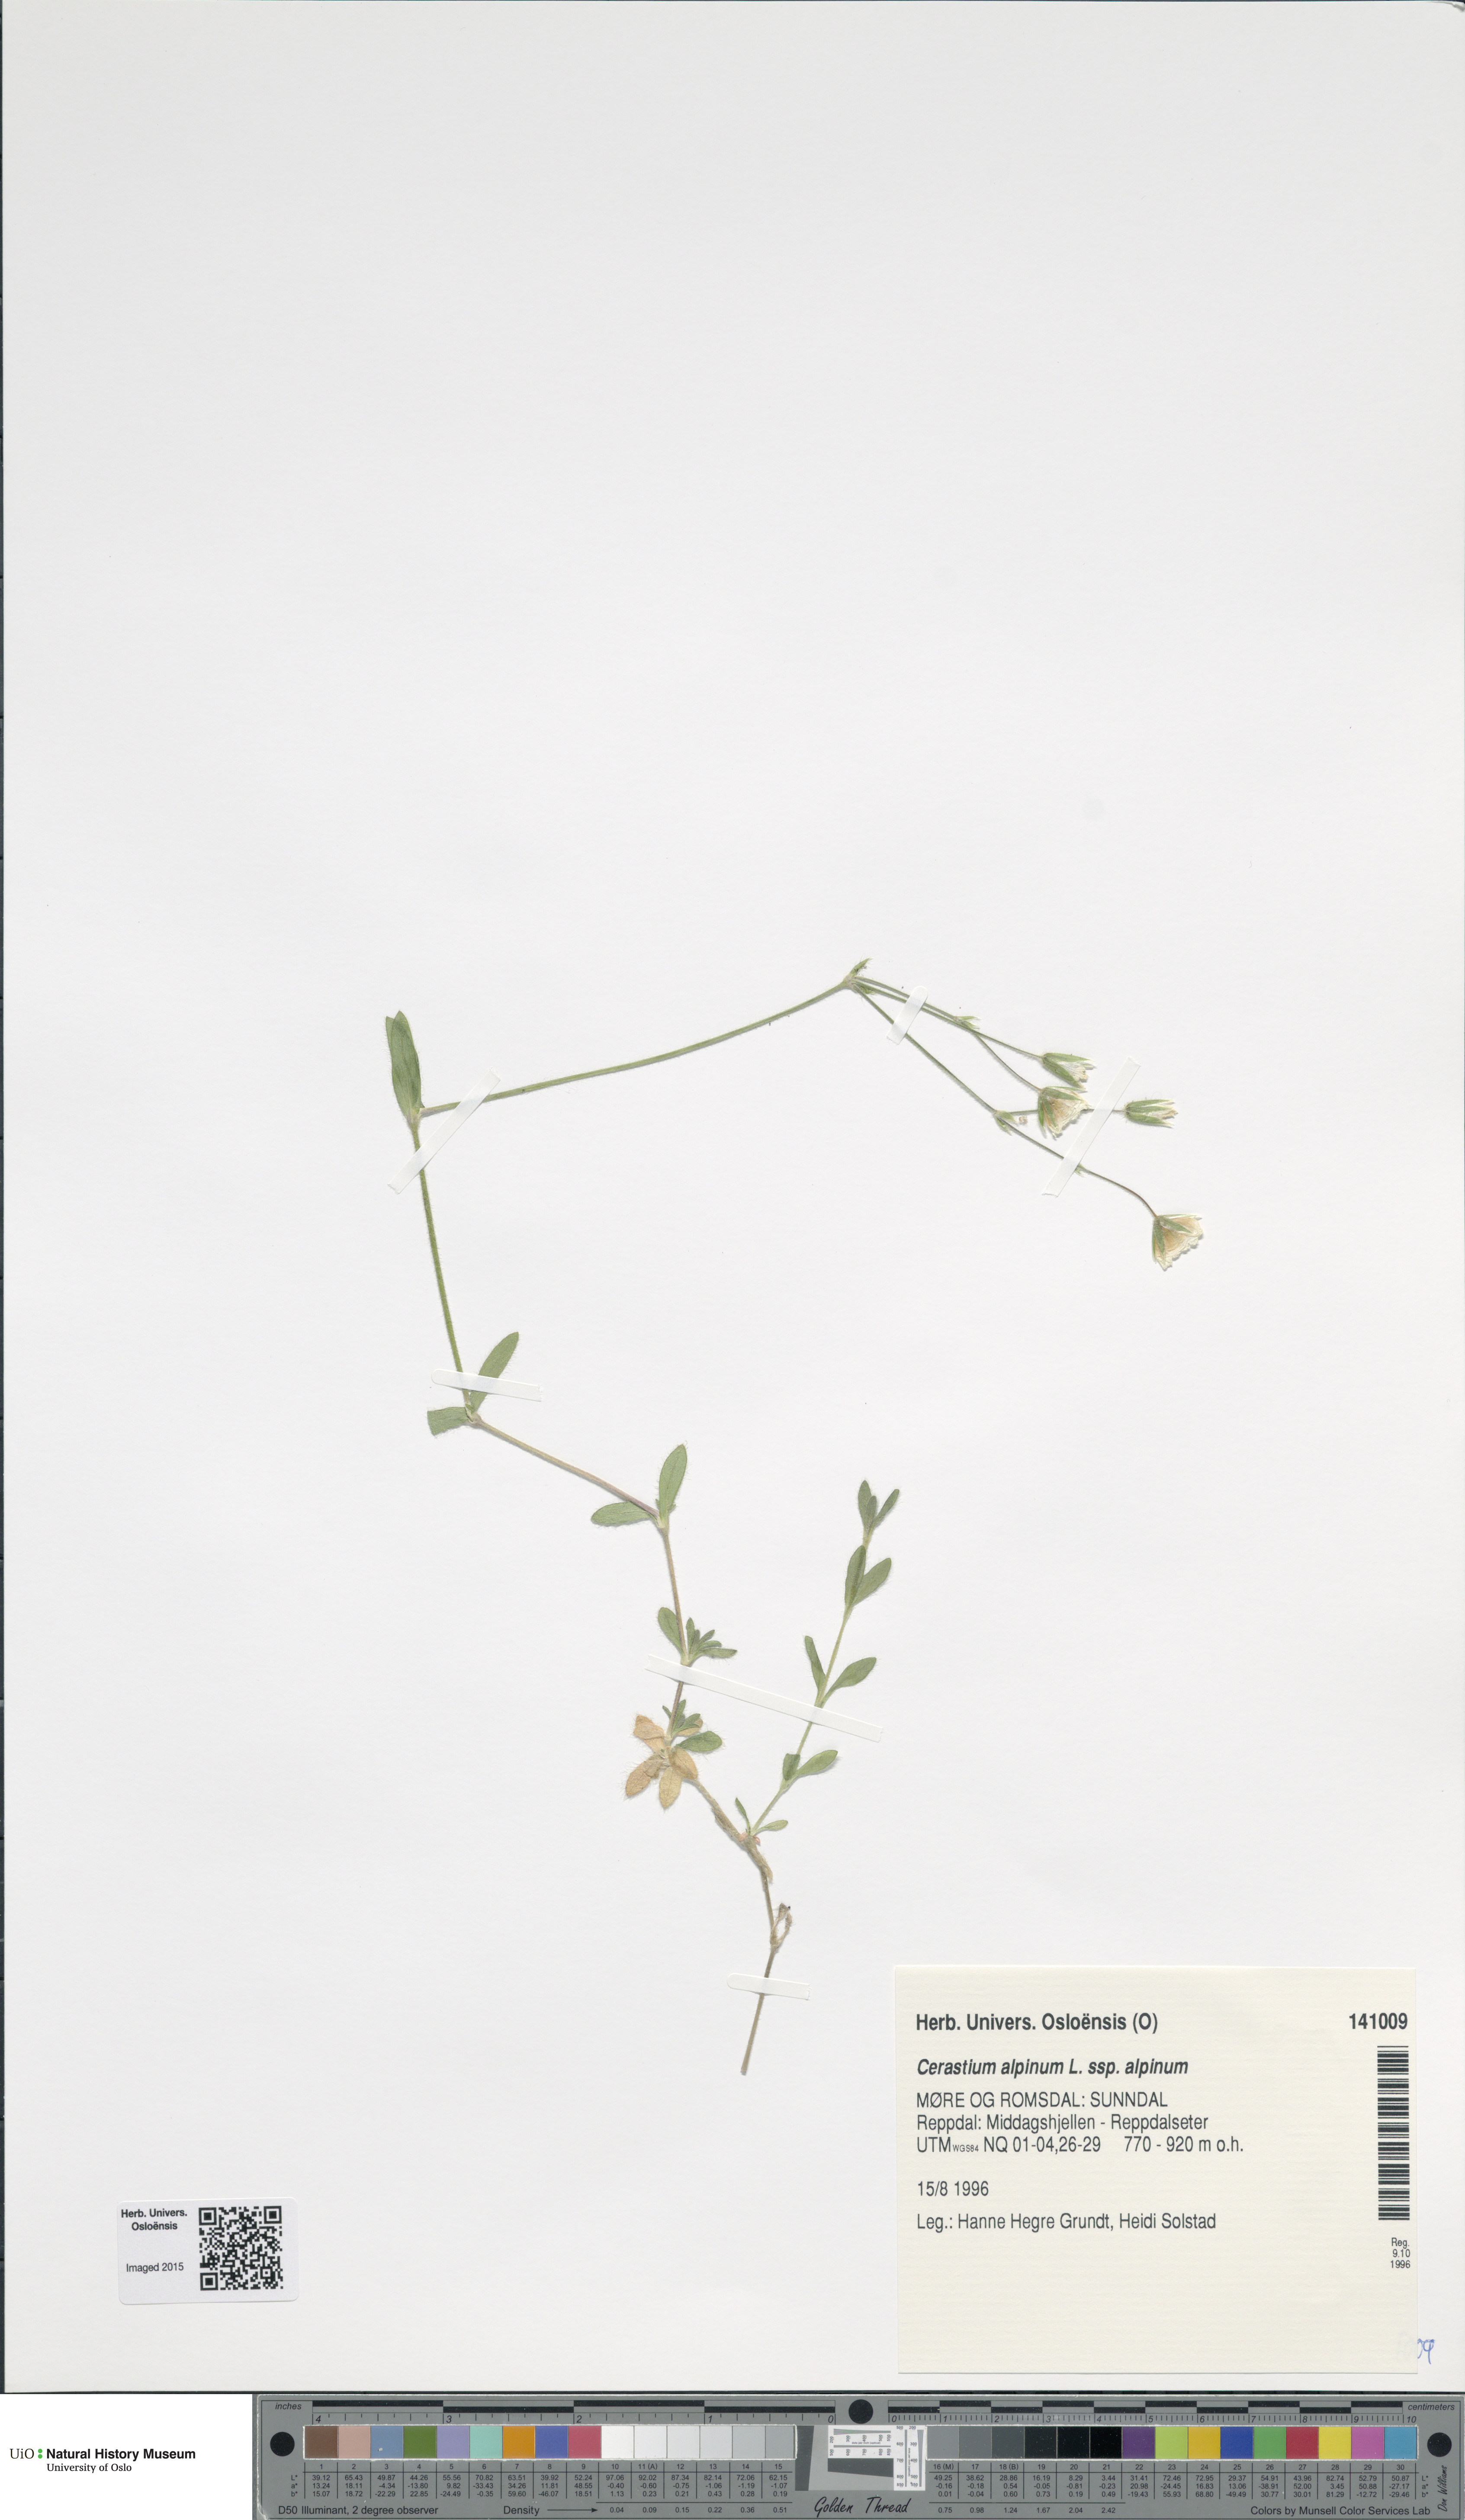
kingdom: Plantae
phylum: Tracheophyta
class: Magnoliopsida
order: Caryophyllales
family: Caryophyllaceae
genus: Cerastium
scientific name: Cerastium alpinum
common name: Alpine mouse-ear
